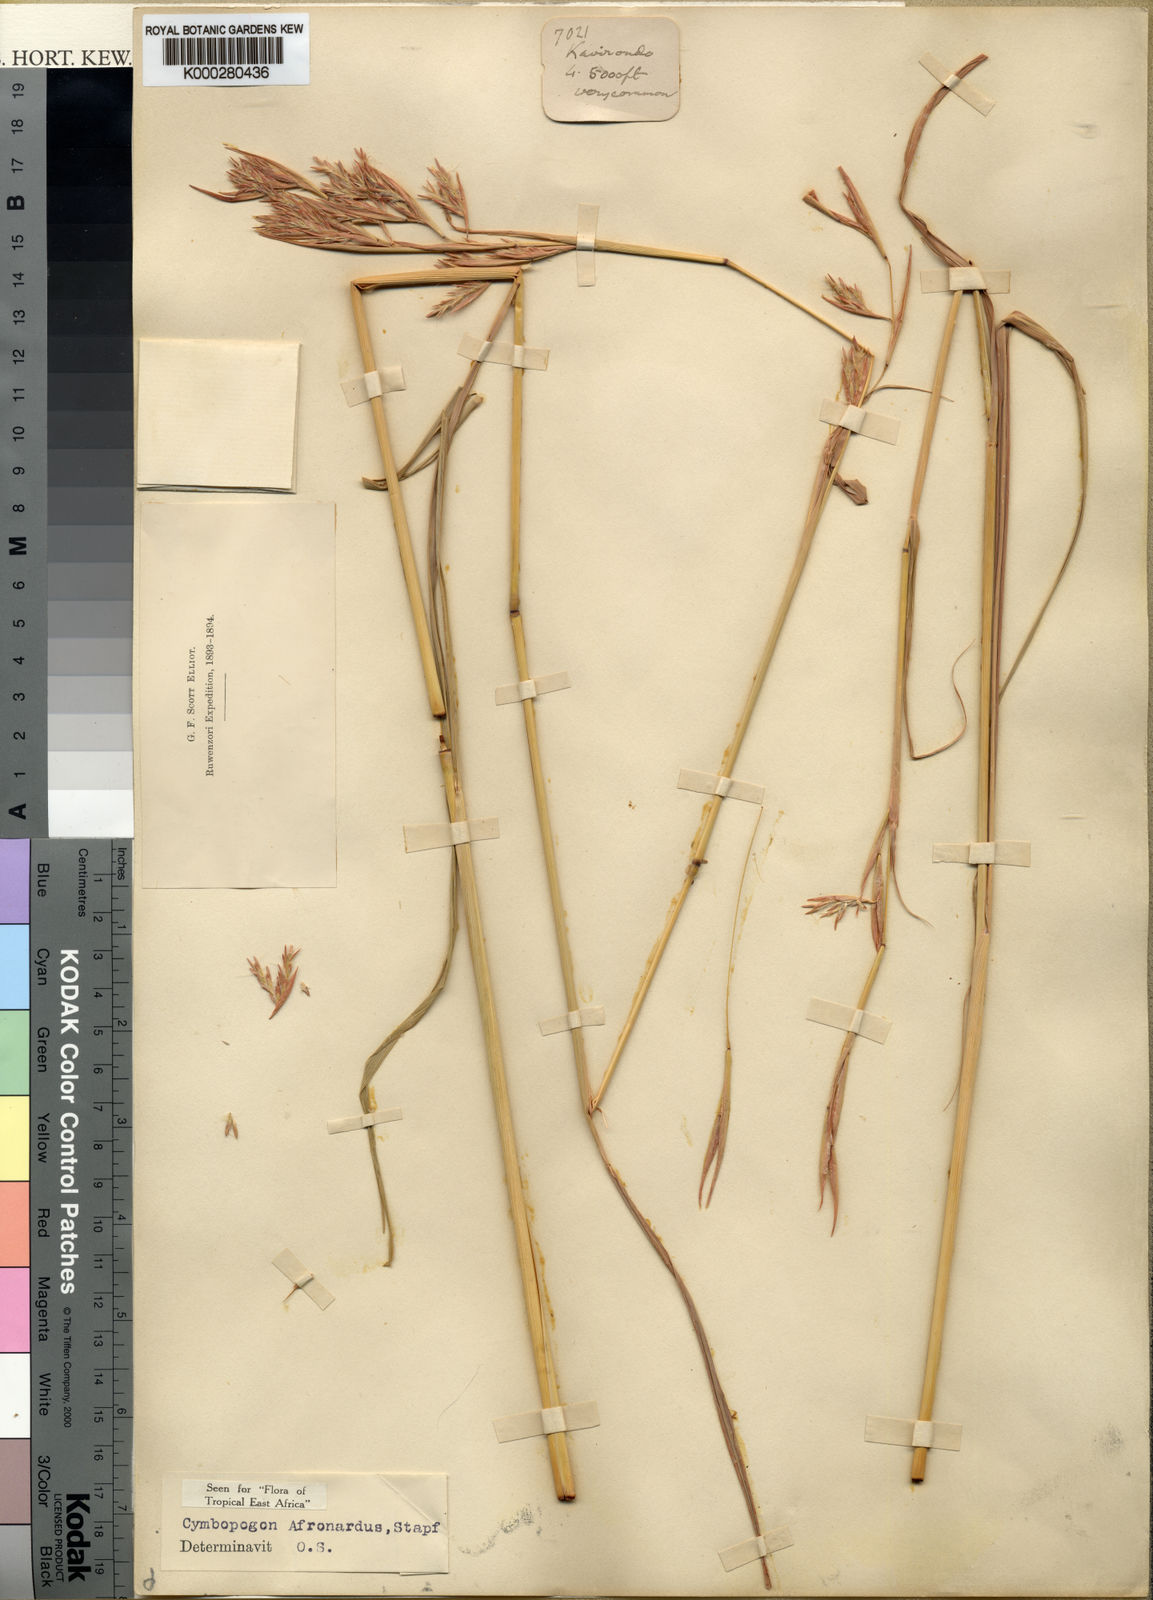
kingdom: Plantae
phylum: Tracheophyta
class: Liliopsida
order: Poales
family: Poaceae
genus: Cymbopogon
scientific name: Cymbopogon nardus
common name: Giant turpentine grass
